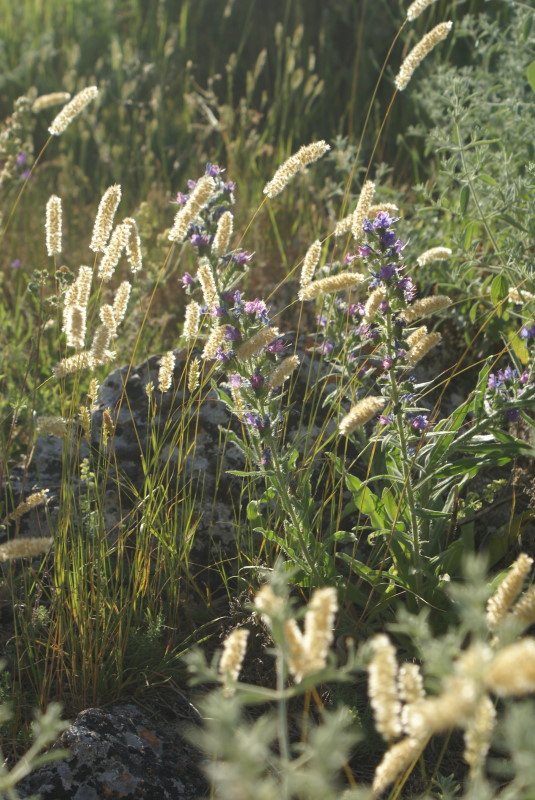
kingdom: Plantae
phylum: Tracheophyta
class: Liliopsida
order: Poales
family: Poaceae
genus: Alopecurus
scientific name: Alopecurus pratensis
